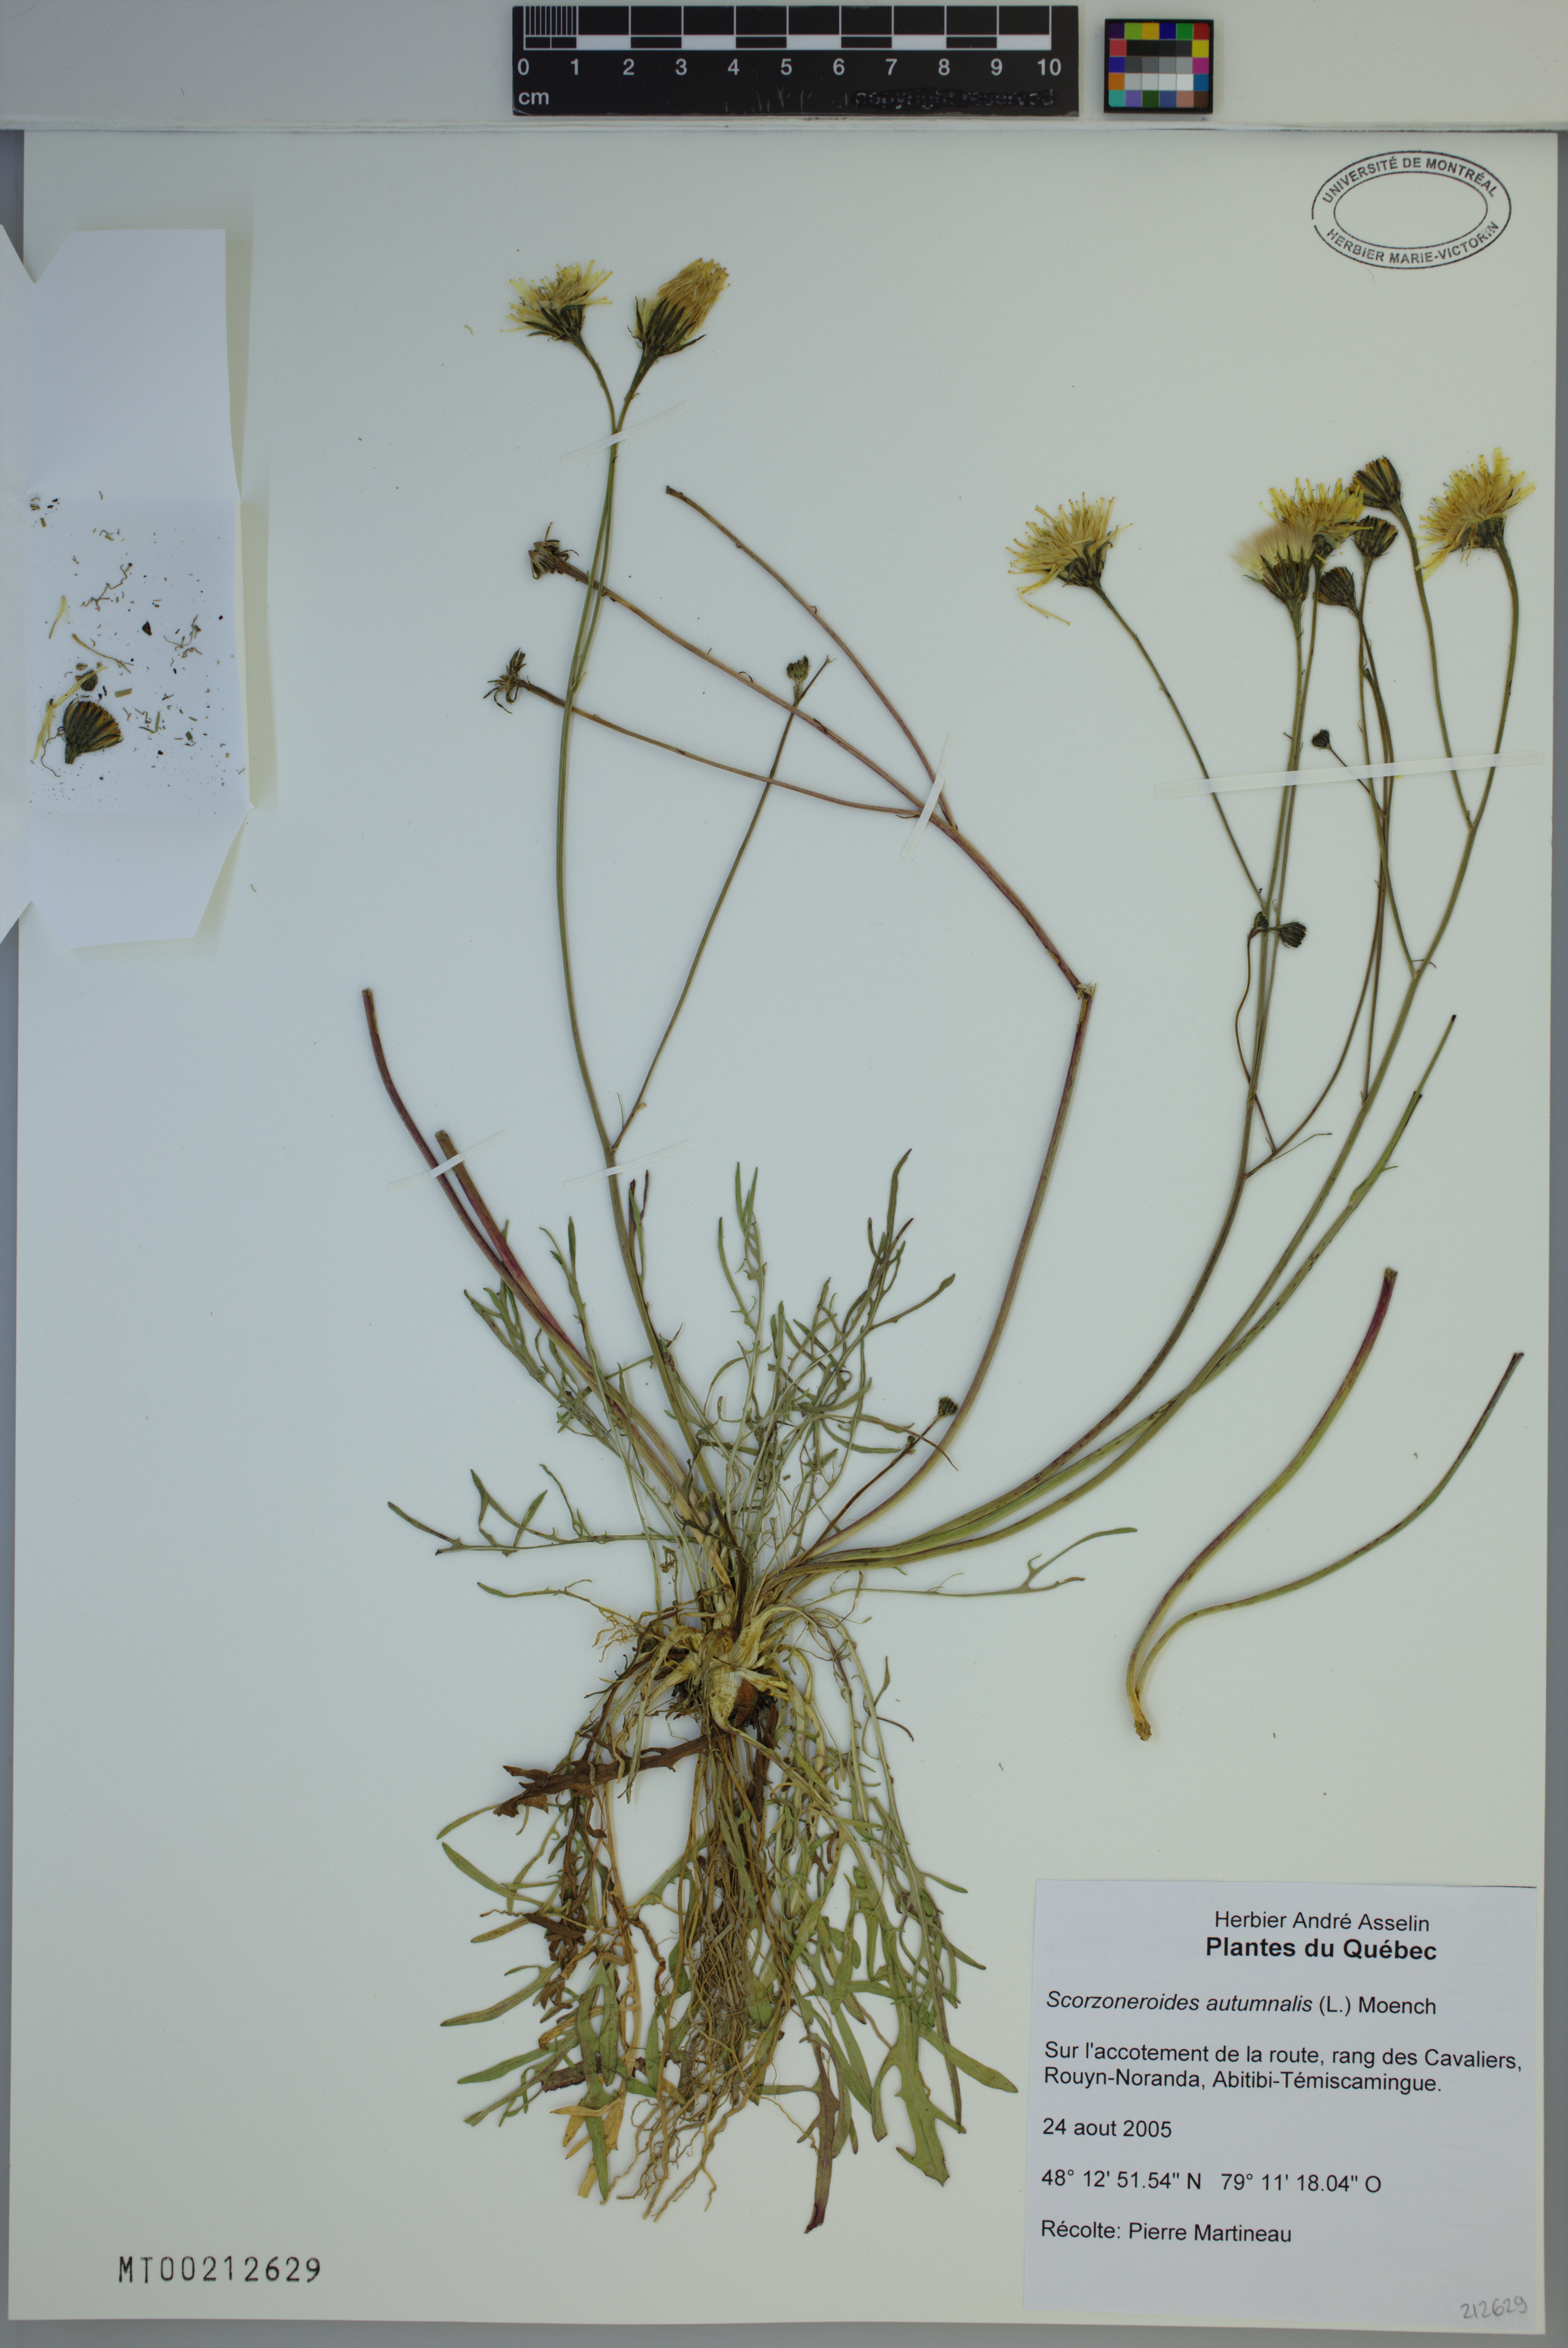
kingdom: Plantae
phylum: Tracheophyta
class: Magnoliopsida
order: Asterales
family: Asteraceae
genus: Scorzoneroides
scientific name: Scorzoneroides autumnalis
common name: Autumn hawkbit
